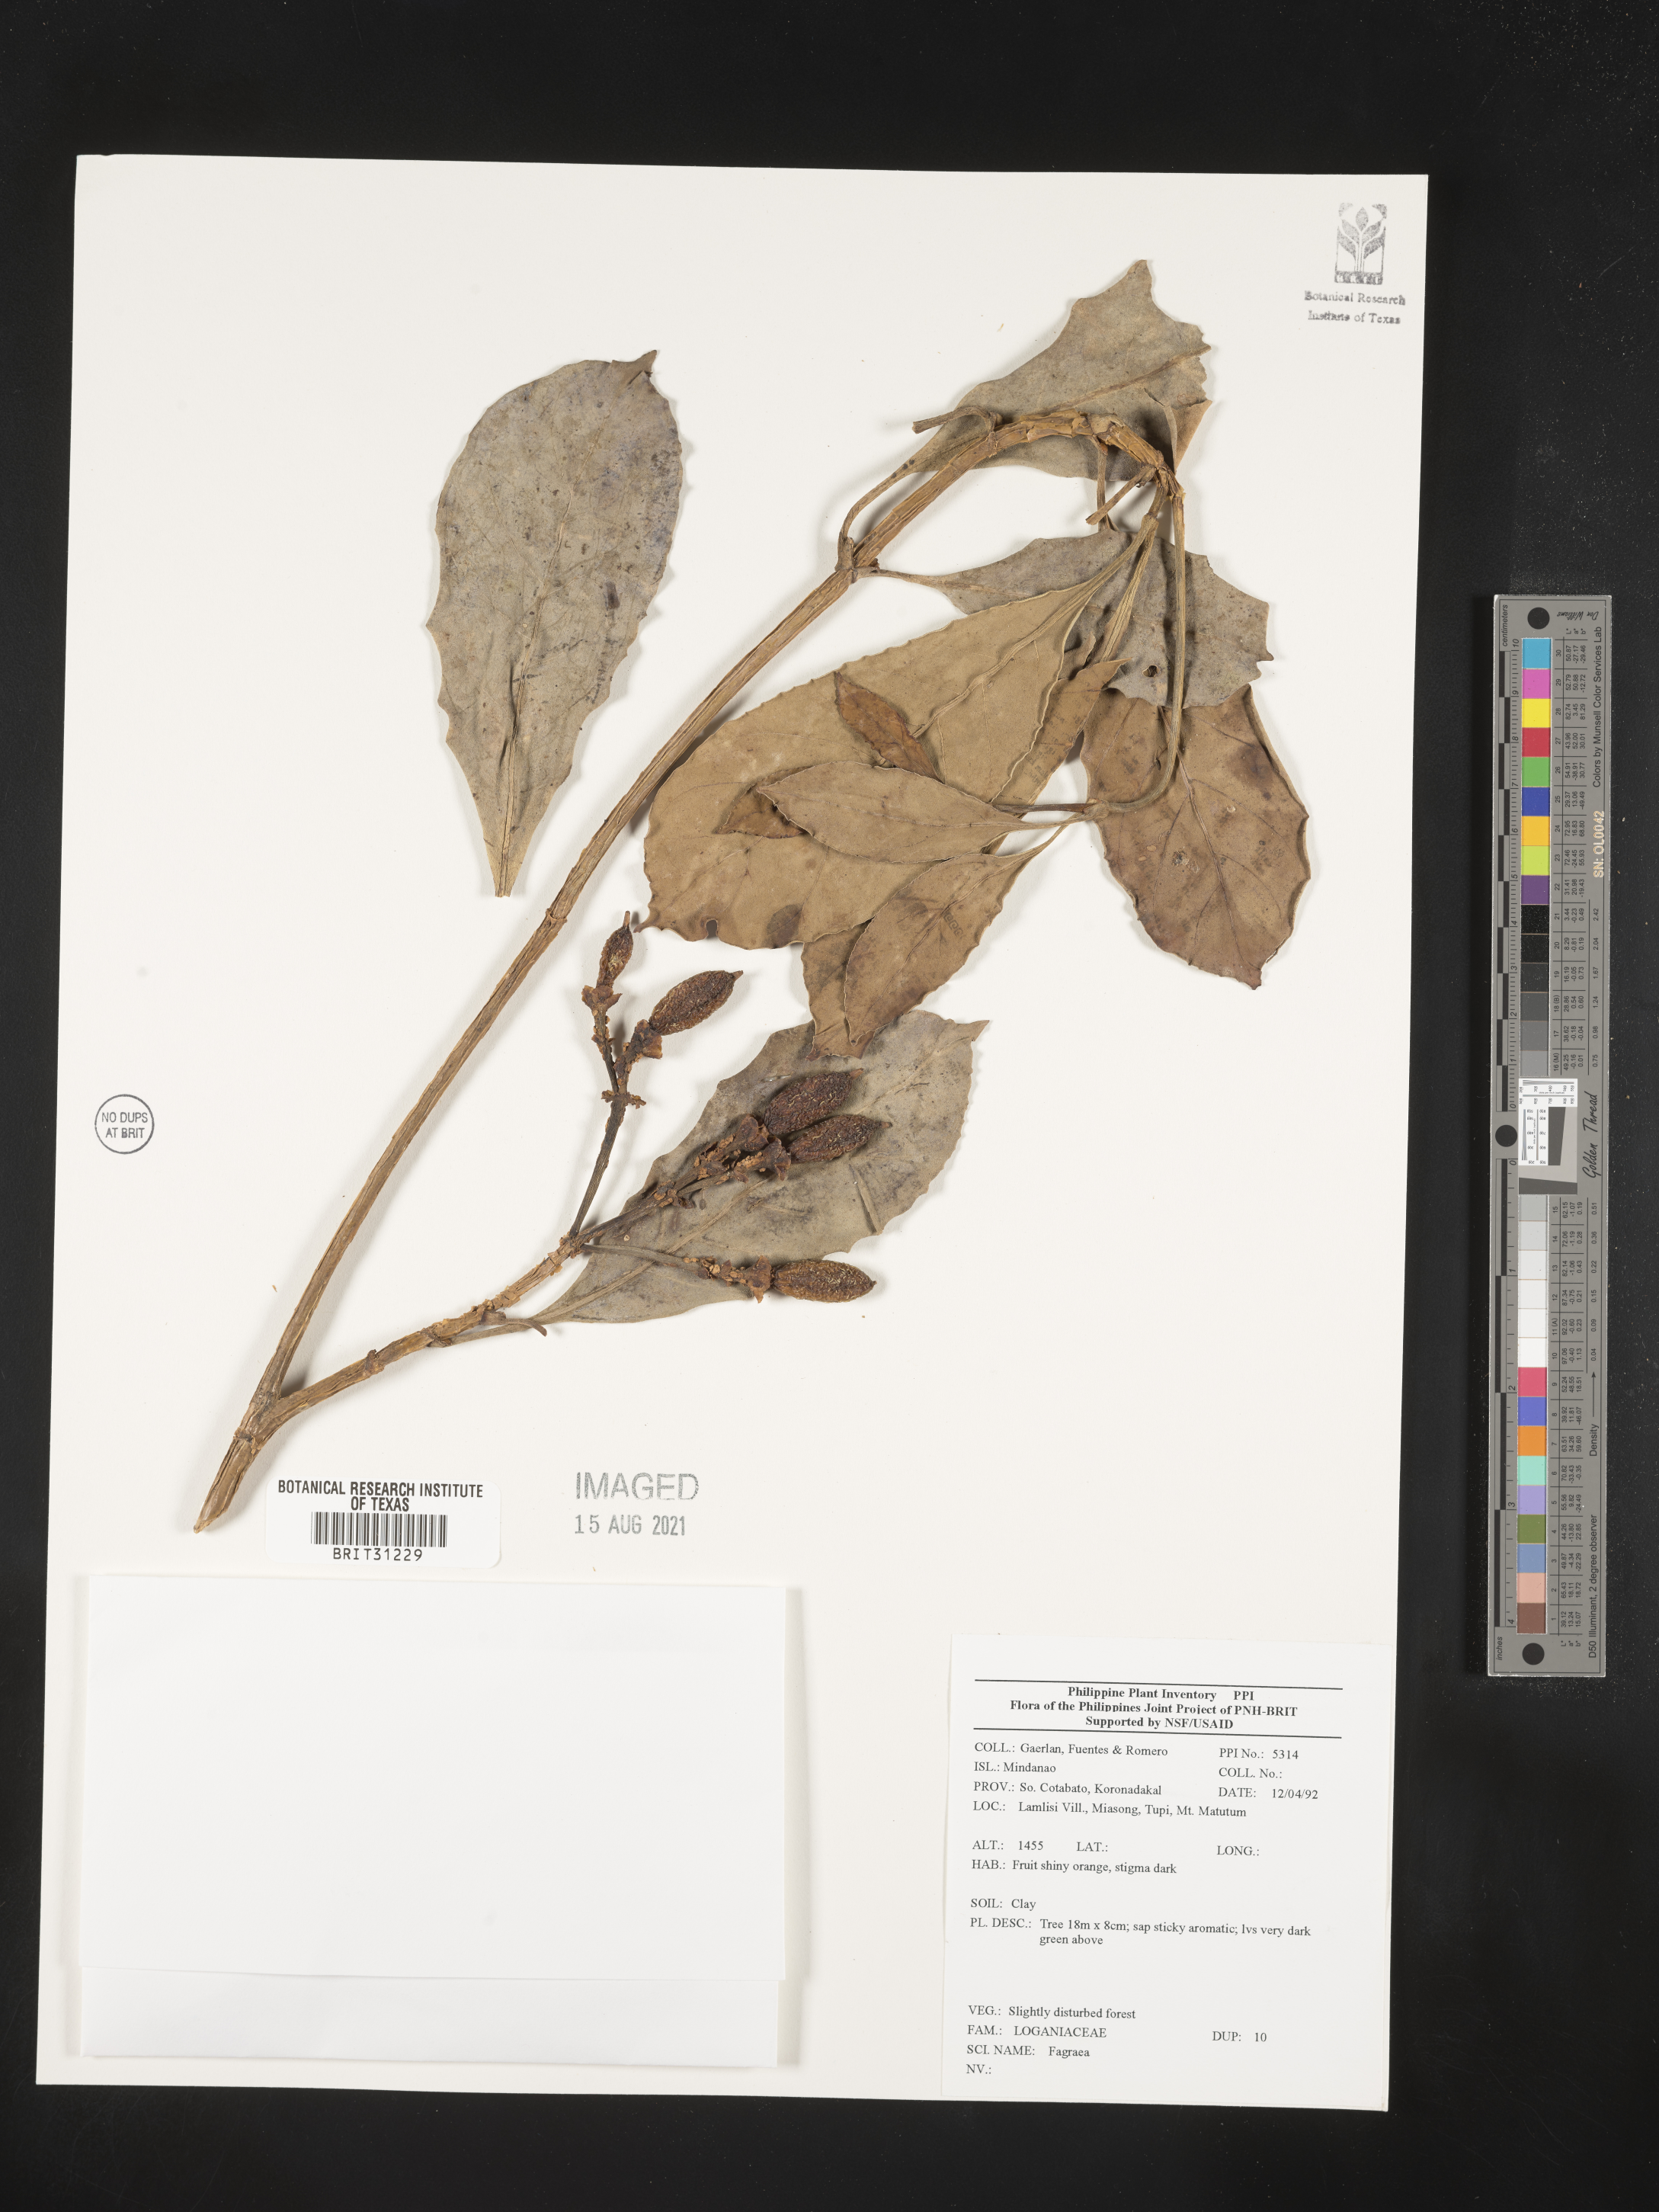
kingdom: Plantae
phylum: Tracheophyta
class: Magnoliopsida
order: Gentianales
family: Gentianaceae
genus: Fagraea
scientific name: Fagraea
